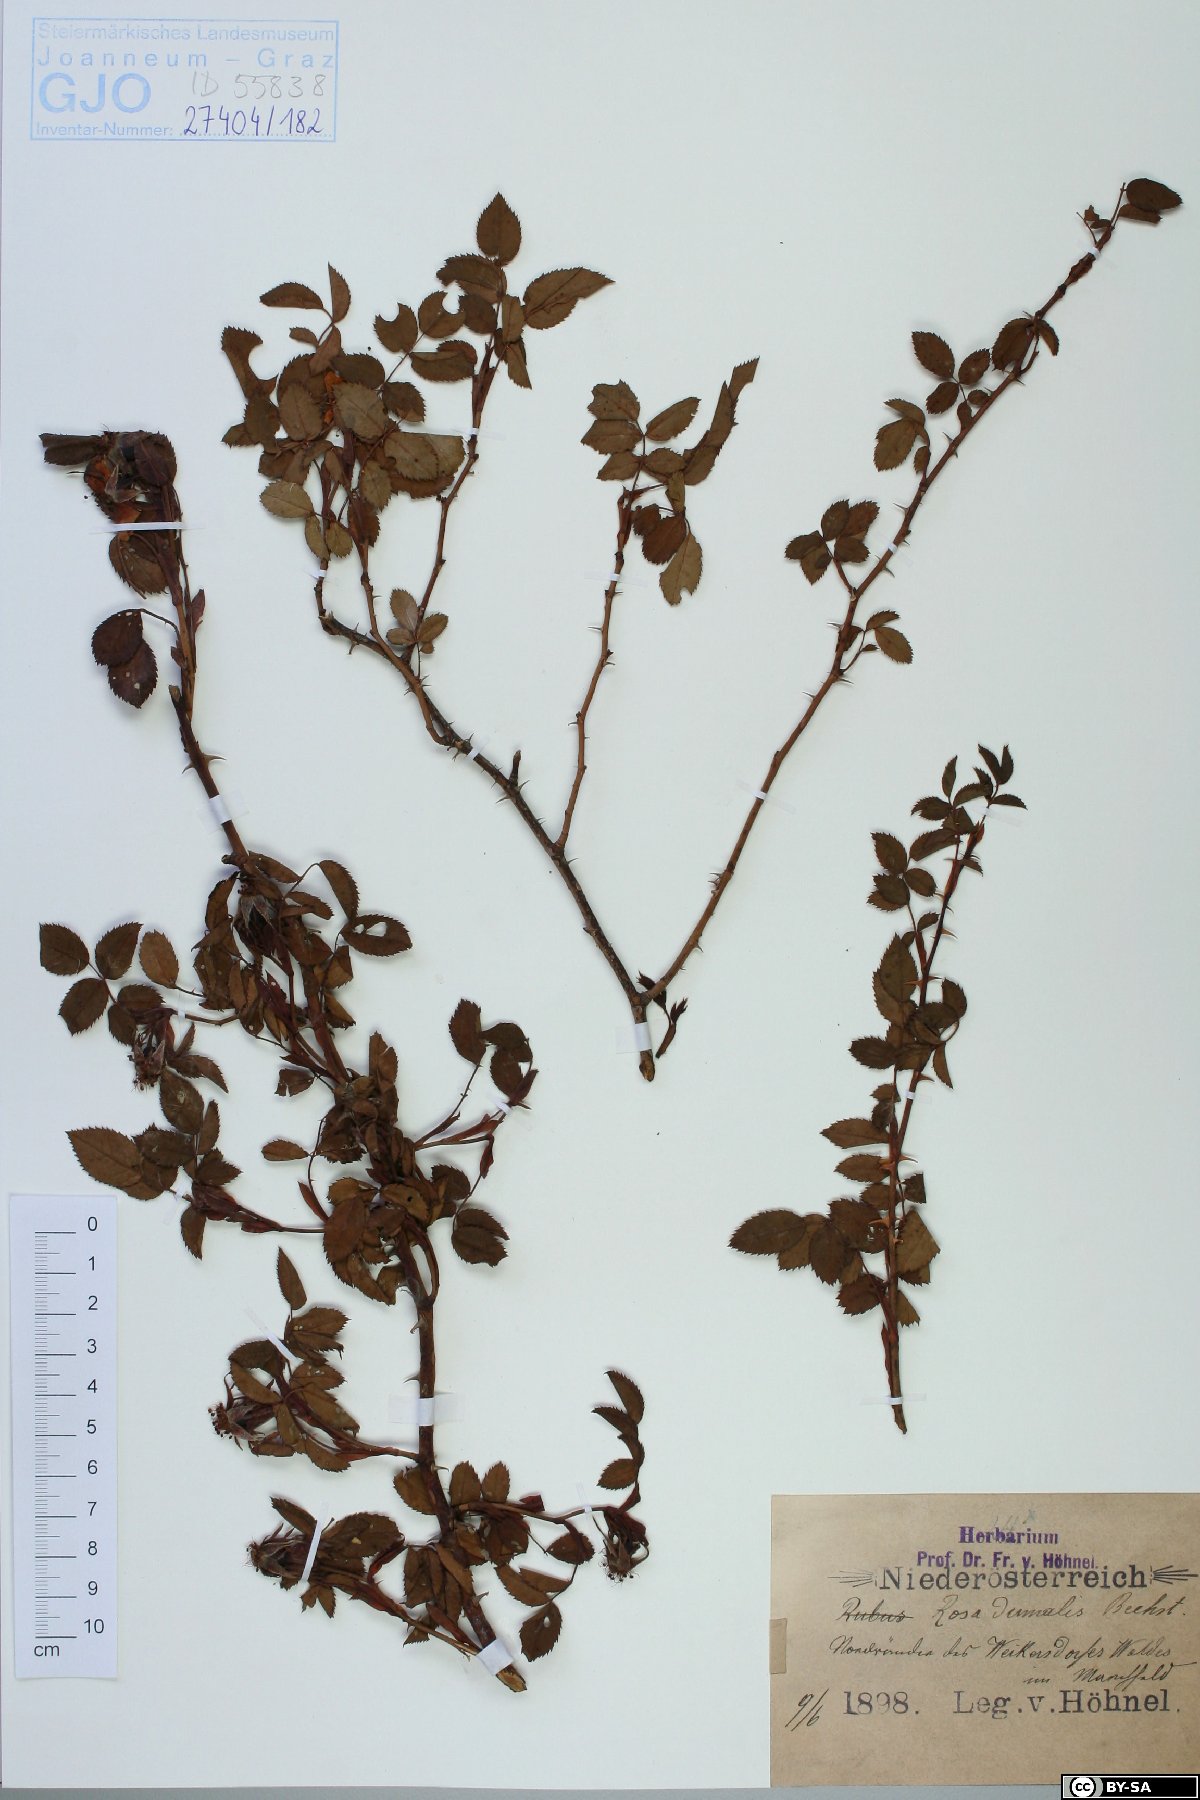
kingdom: Plantae
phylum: Tracheophyta
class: Magnoliopsida
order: Rosales
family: Rosaceae
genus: Rosa
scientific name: Rosa dumalis
